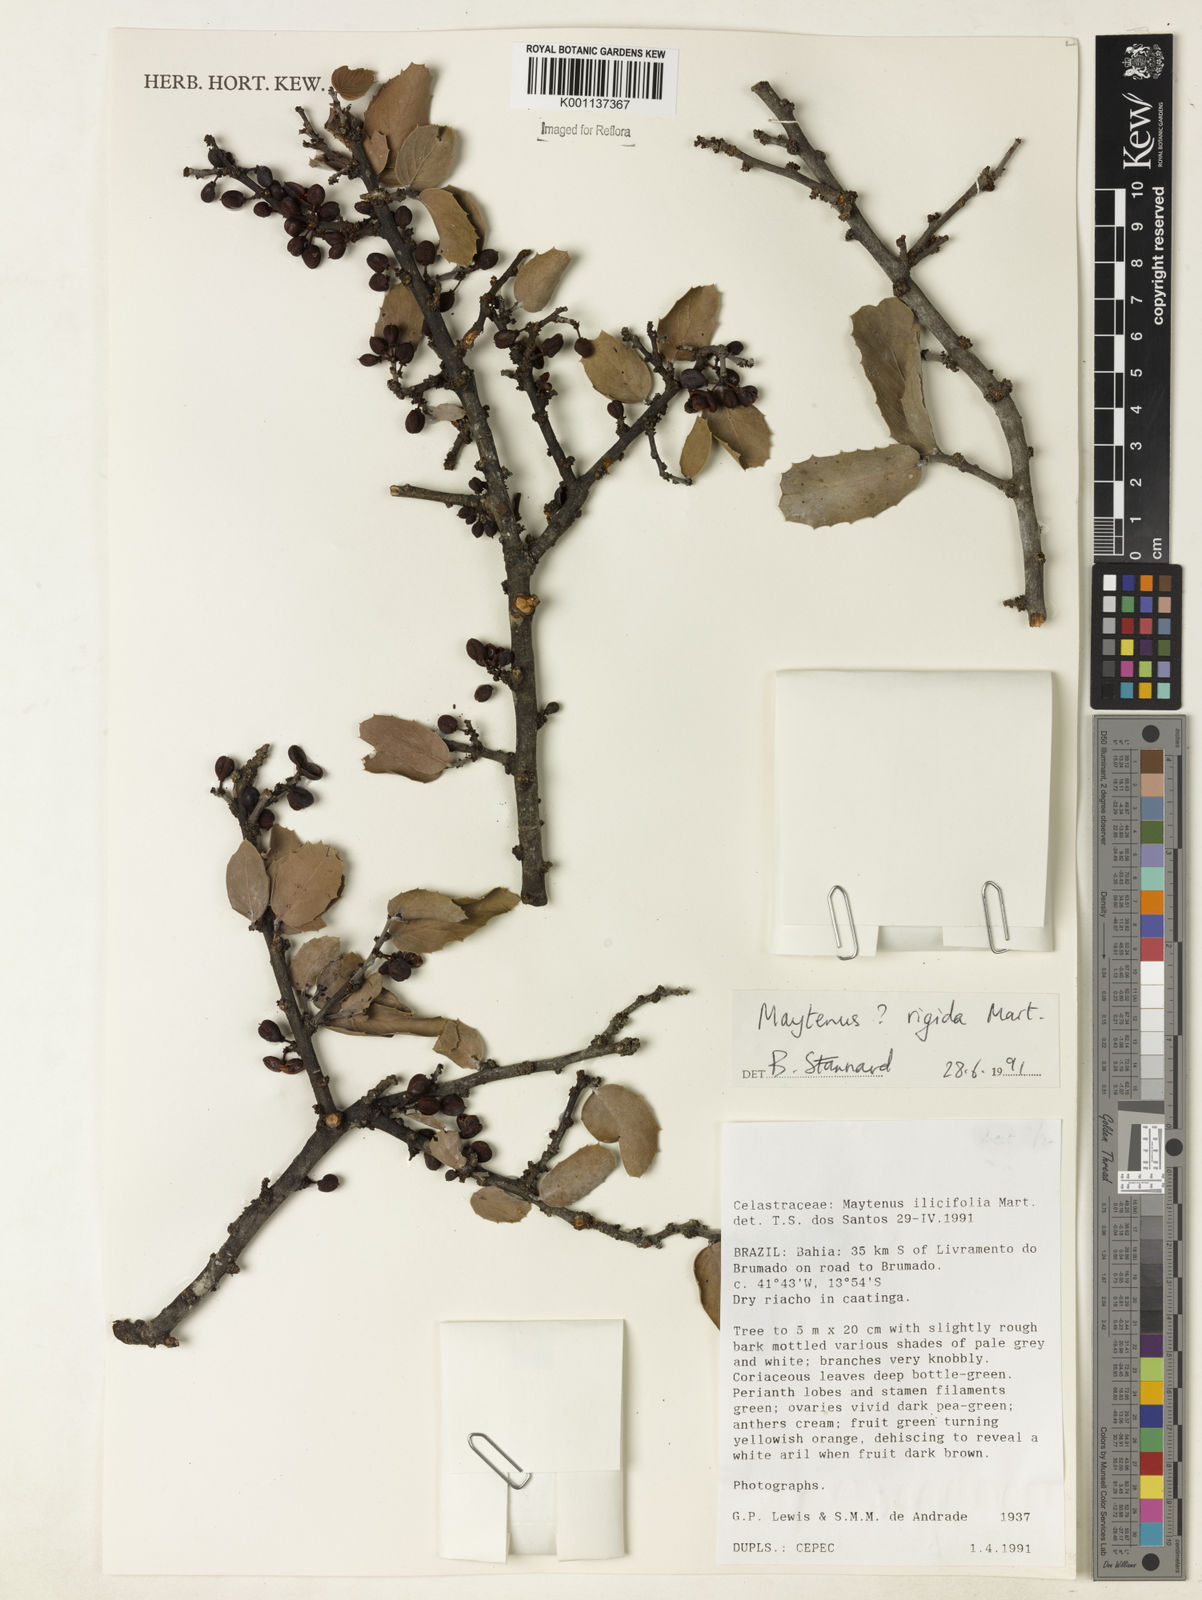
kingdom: Plantae
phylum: Tracheophyta
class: Magnoliopsida
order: Celastrales
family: Celastraceae
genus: Monteverdia
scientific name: Monteverdia rigida
